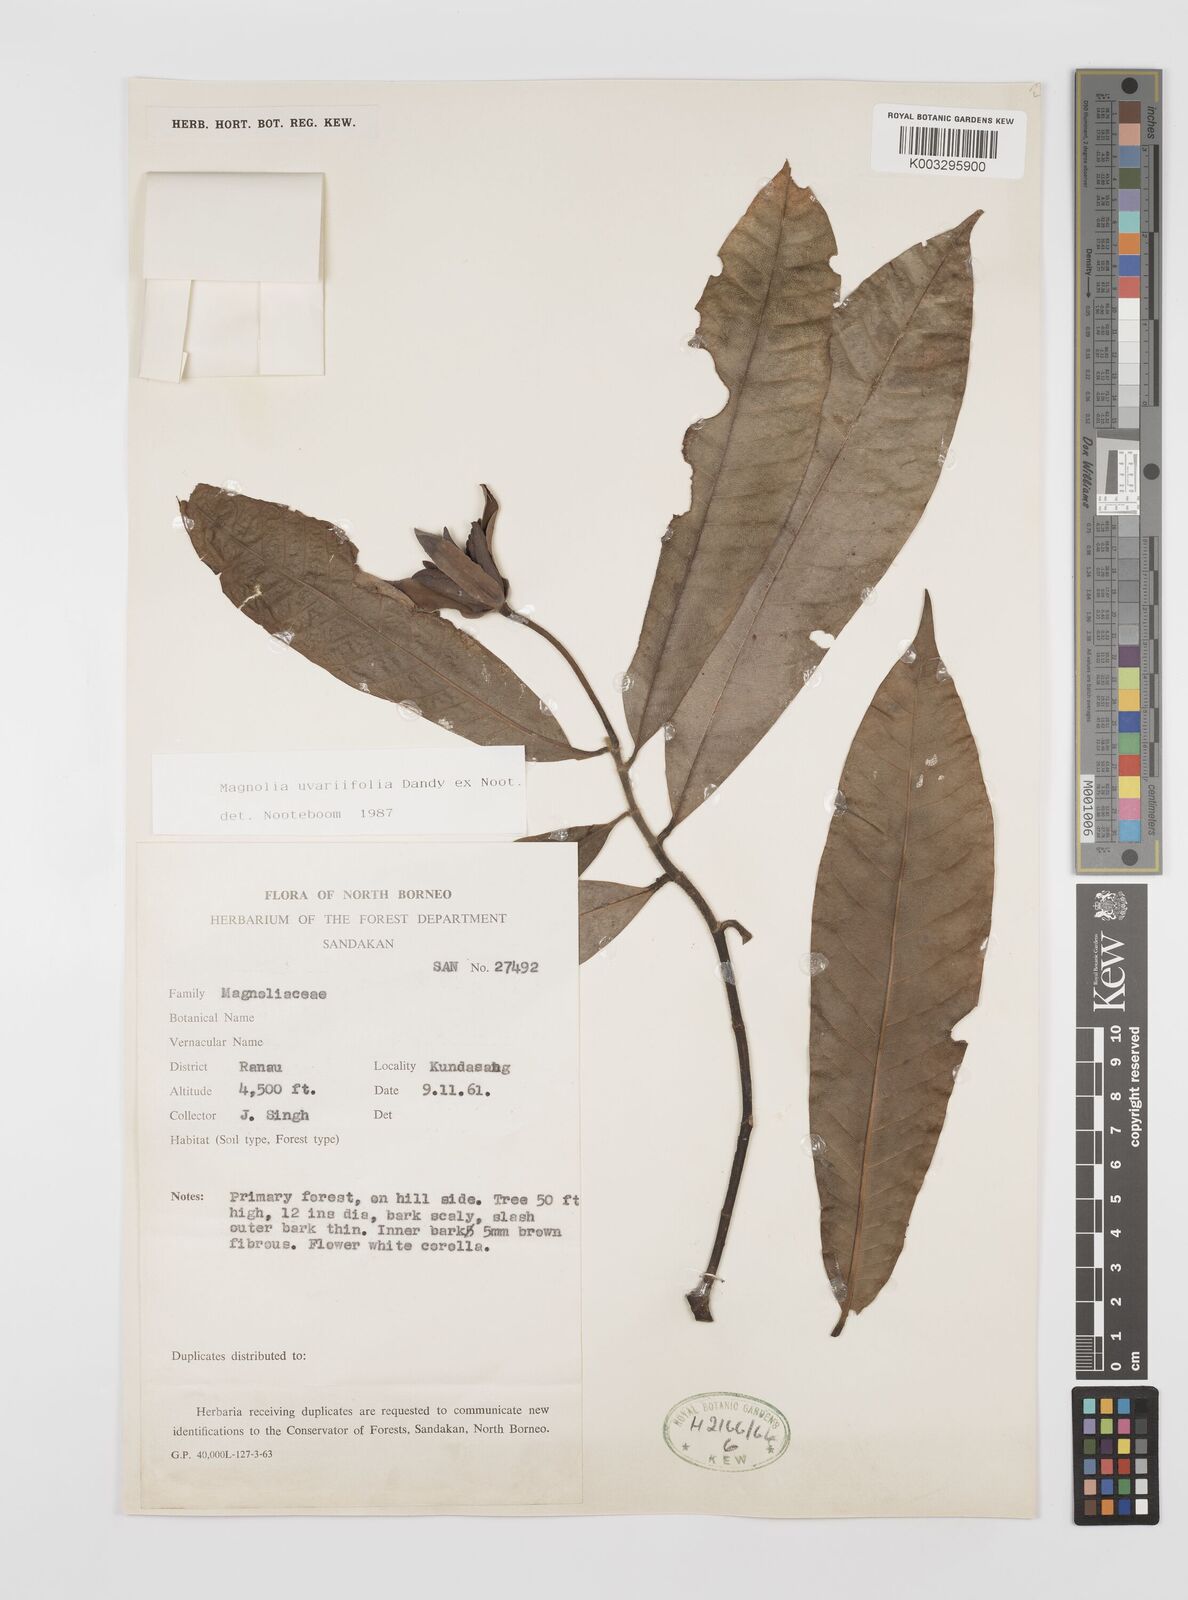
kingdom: Plantae
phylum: Tracheophyta
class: Magnoliopsida
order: Magnoliales
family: Magnoliaceae
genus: Magnolia
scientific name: Magnolia macklottii
